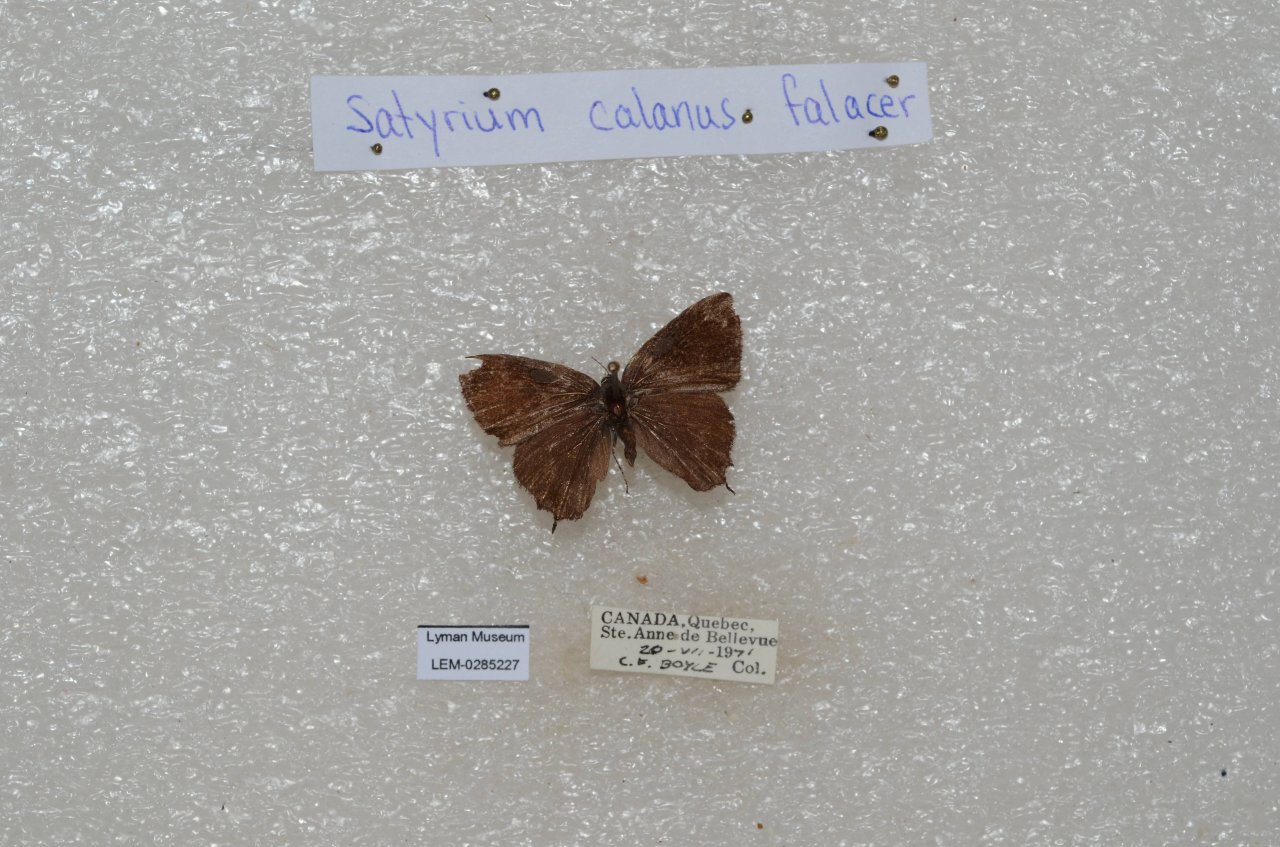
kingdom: Animalia
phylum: Arthropoda
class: Insecta
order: Lepidoptera
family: Lycaenidae
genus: Satyrium
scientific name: Satyrium calanus
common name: Banded Hairstreak
